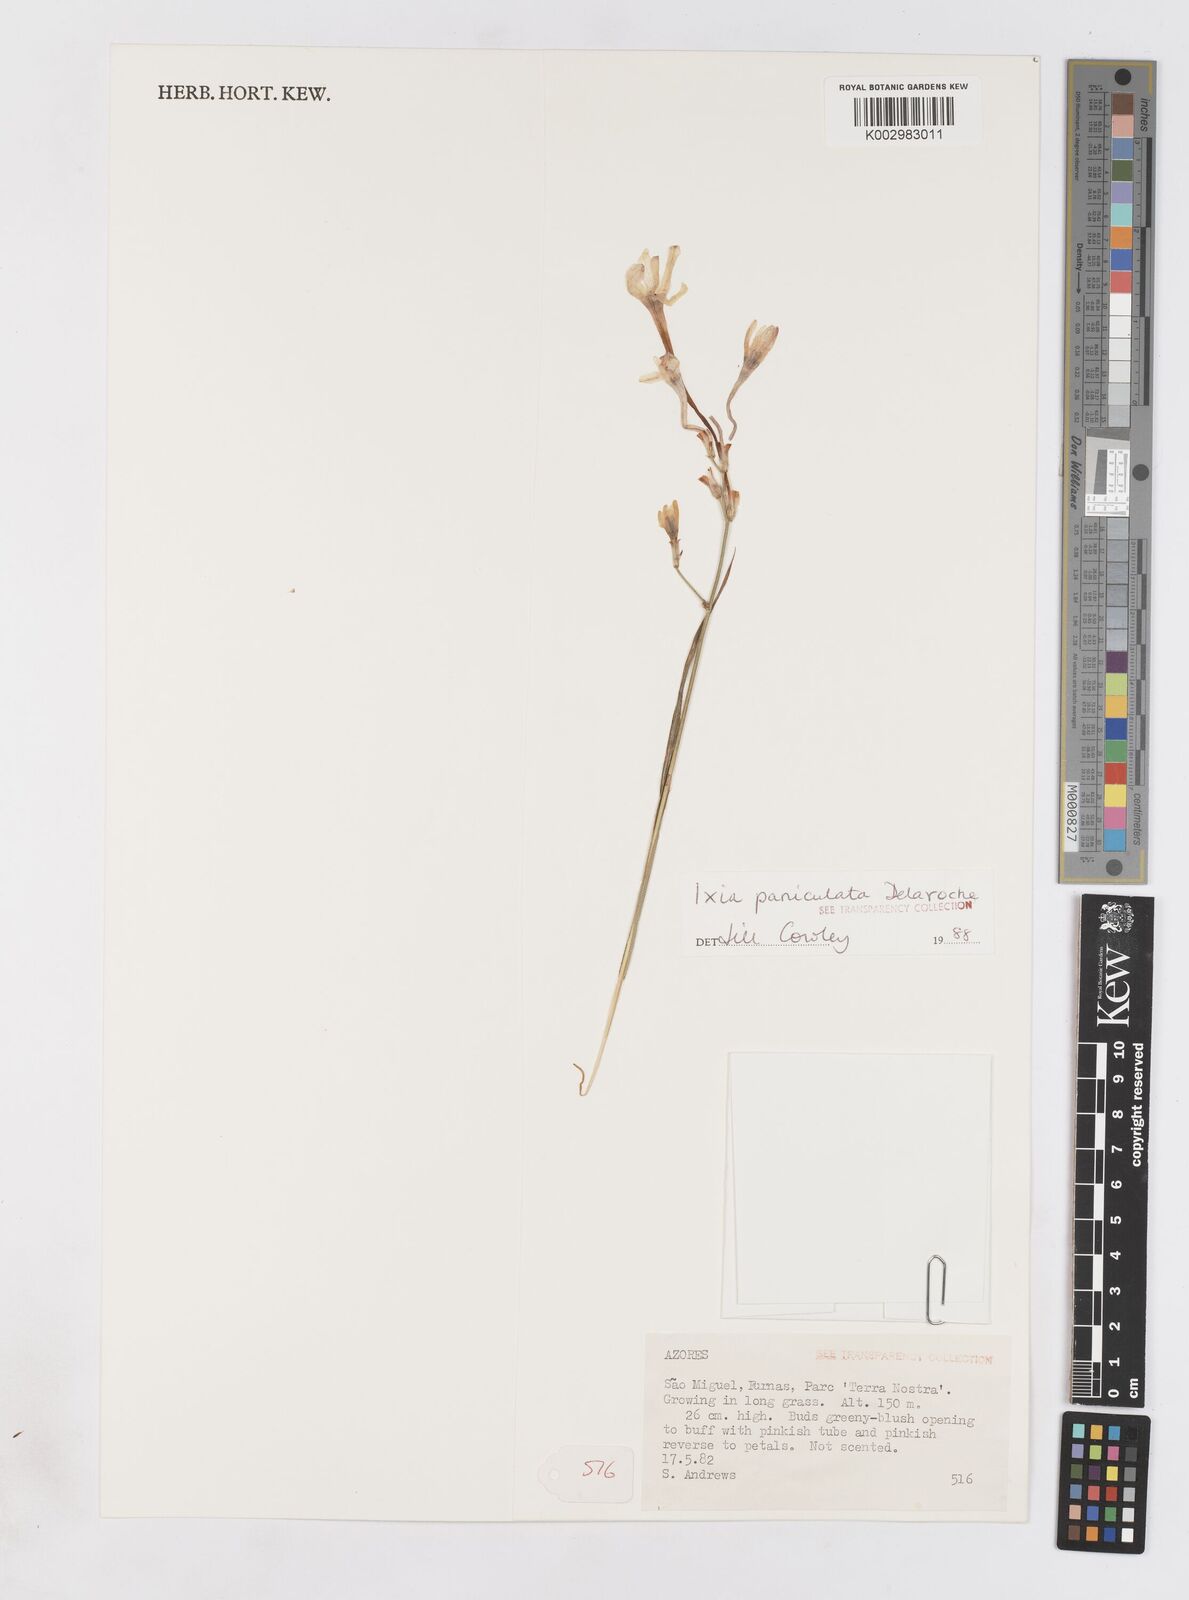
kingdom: Plantae
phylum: Tracheophyta
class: Liliopsida
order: Asparagales
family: Iridaceae
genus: Ixia
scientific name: Ixia paniculata
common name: Tubular corn-lily
